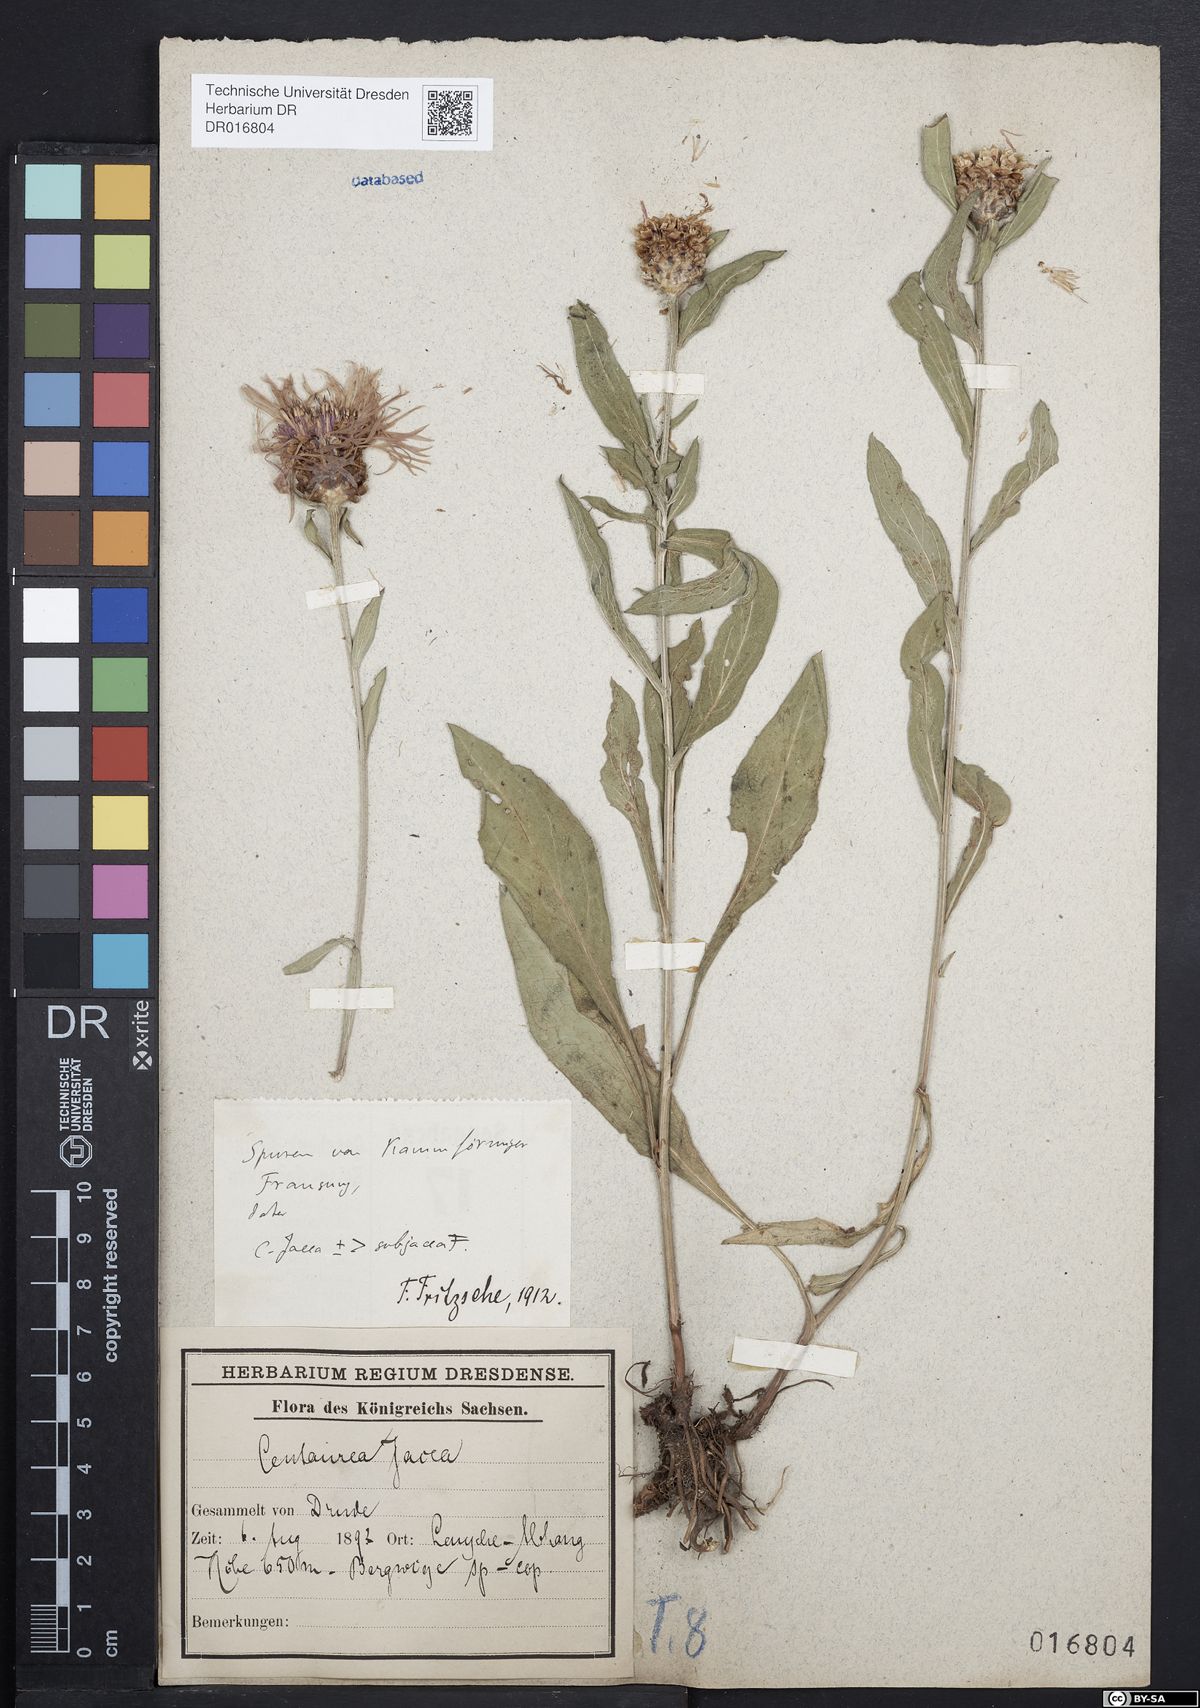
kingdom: Plantae
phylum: Tracheophyta
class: Magnoliopsida
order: Asterales
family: Asteraceae
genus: Centaurea
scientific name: Centaurea preissmannii
